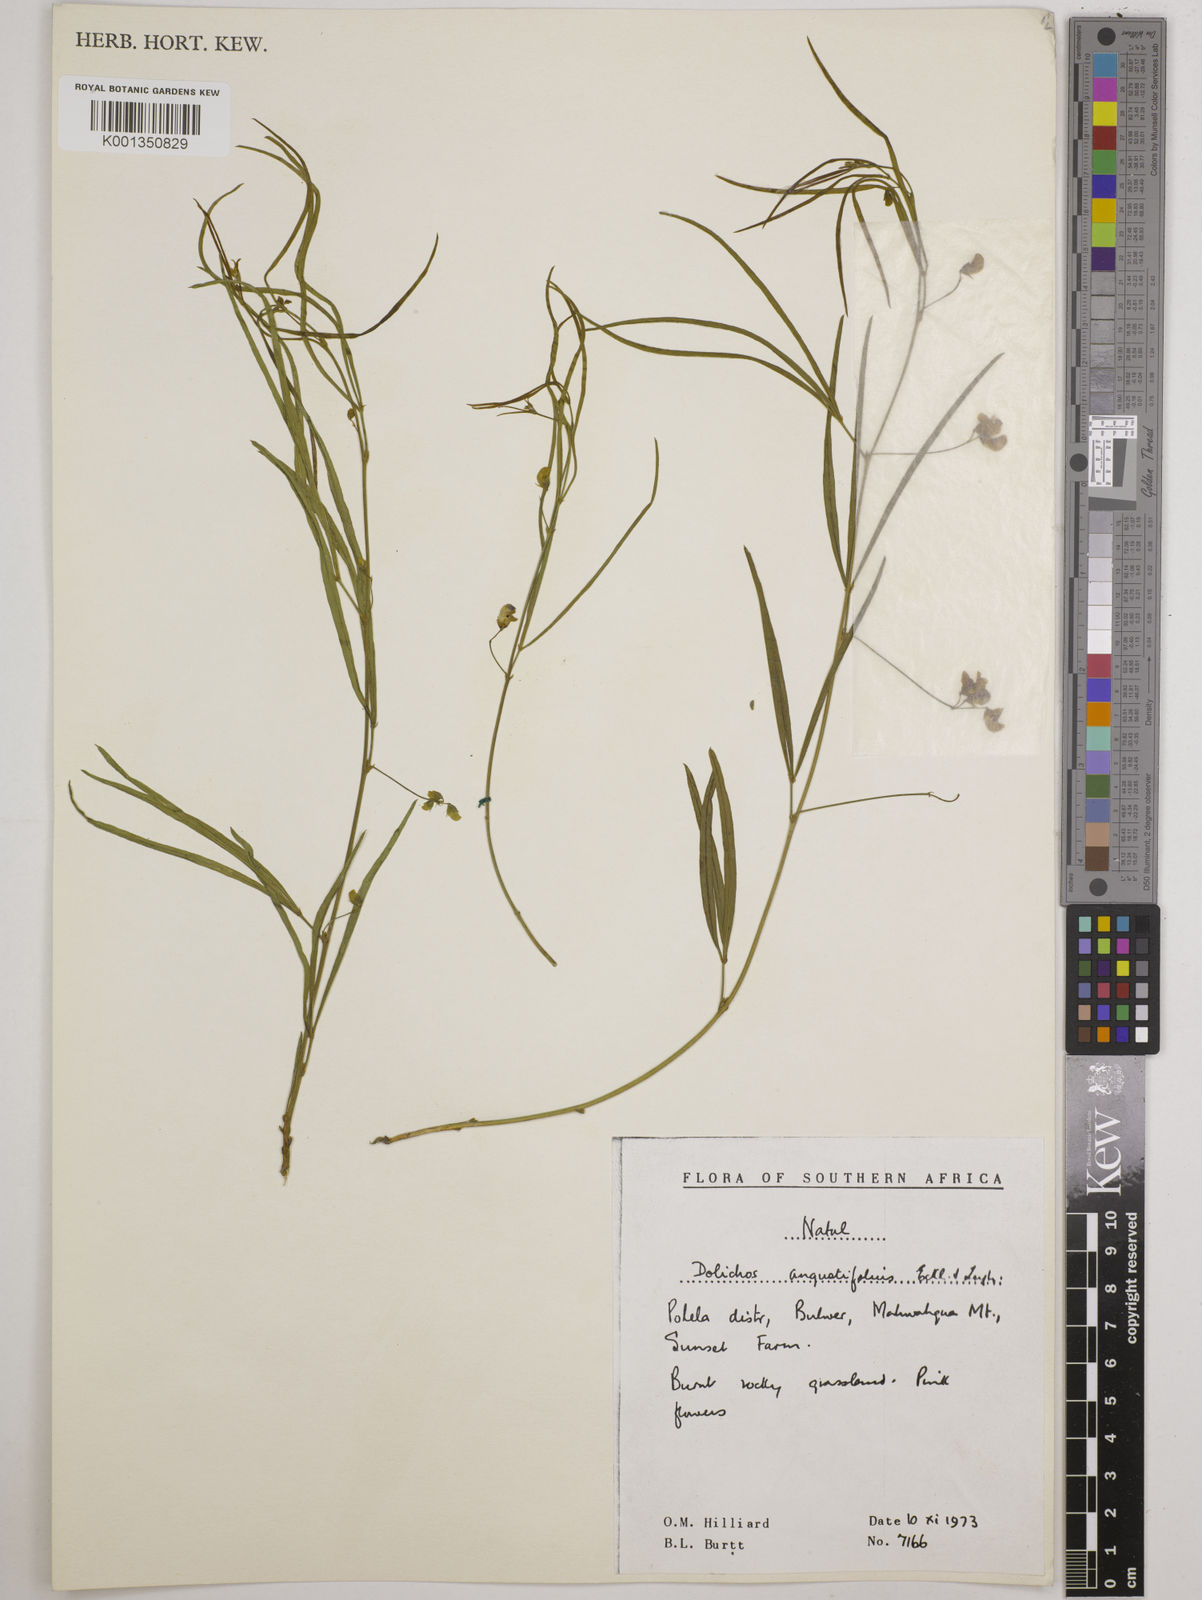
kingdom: Plantae
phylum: Tracheophyta
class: Magnoliopsida
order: Fabales
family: Fabaceae
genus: Dolichos
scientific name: Dolichos
